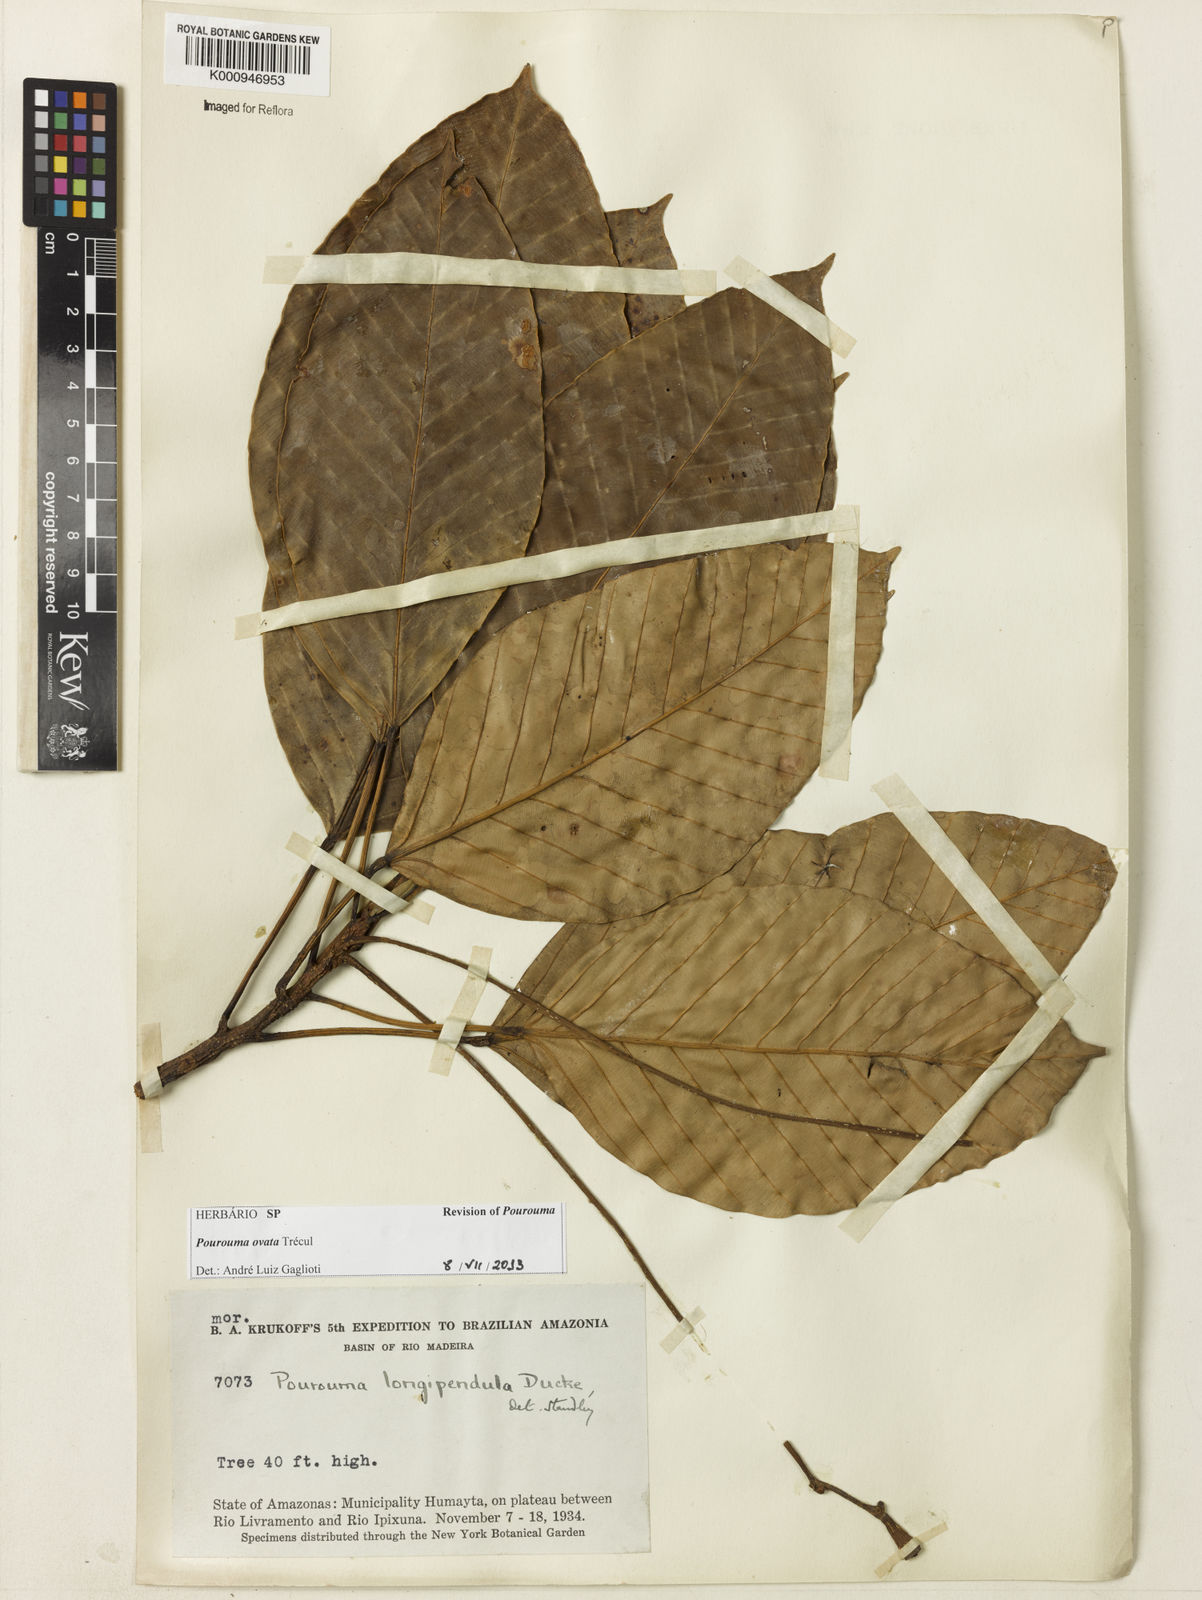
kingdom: Plantae
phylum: Tracheophyta
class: Magnoliopsida
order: Rosales
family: Urticaceae
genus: Pourouma
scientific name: Pourouma
